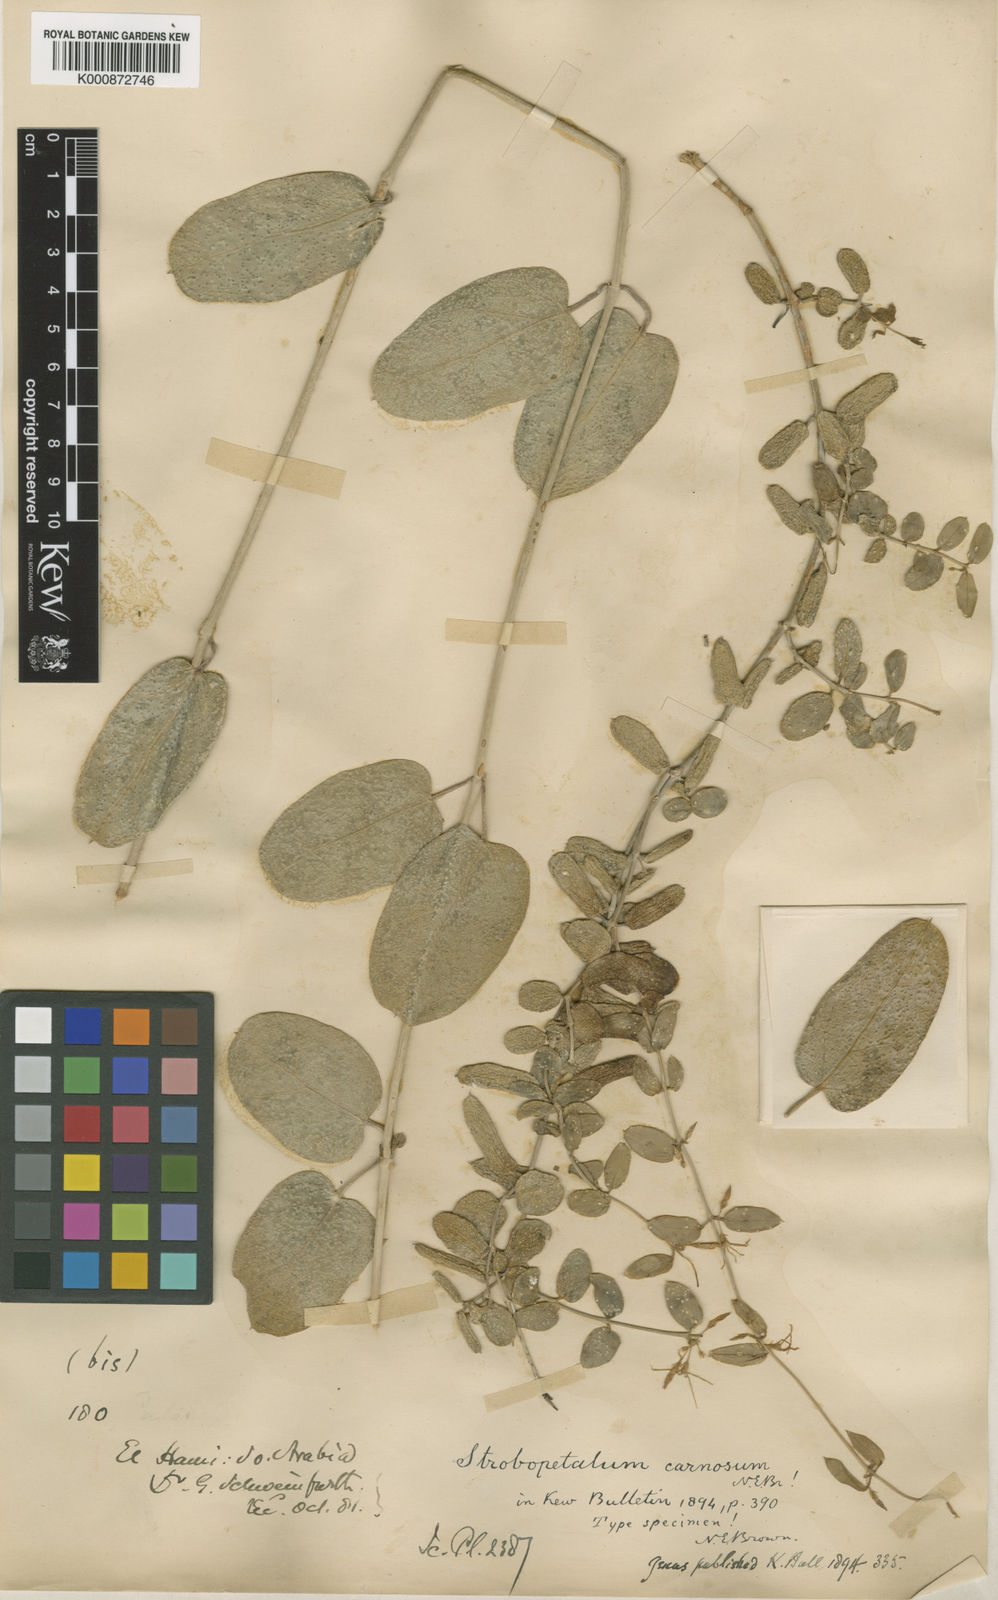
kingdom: Plantae
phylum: Tracheophyta
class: Magnoliopsida
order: Gentianales
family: Apocynaceae
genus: Pentatropis
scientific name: Pentatropis
